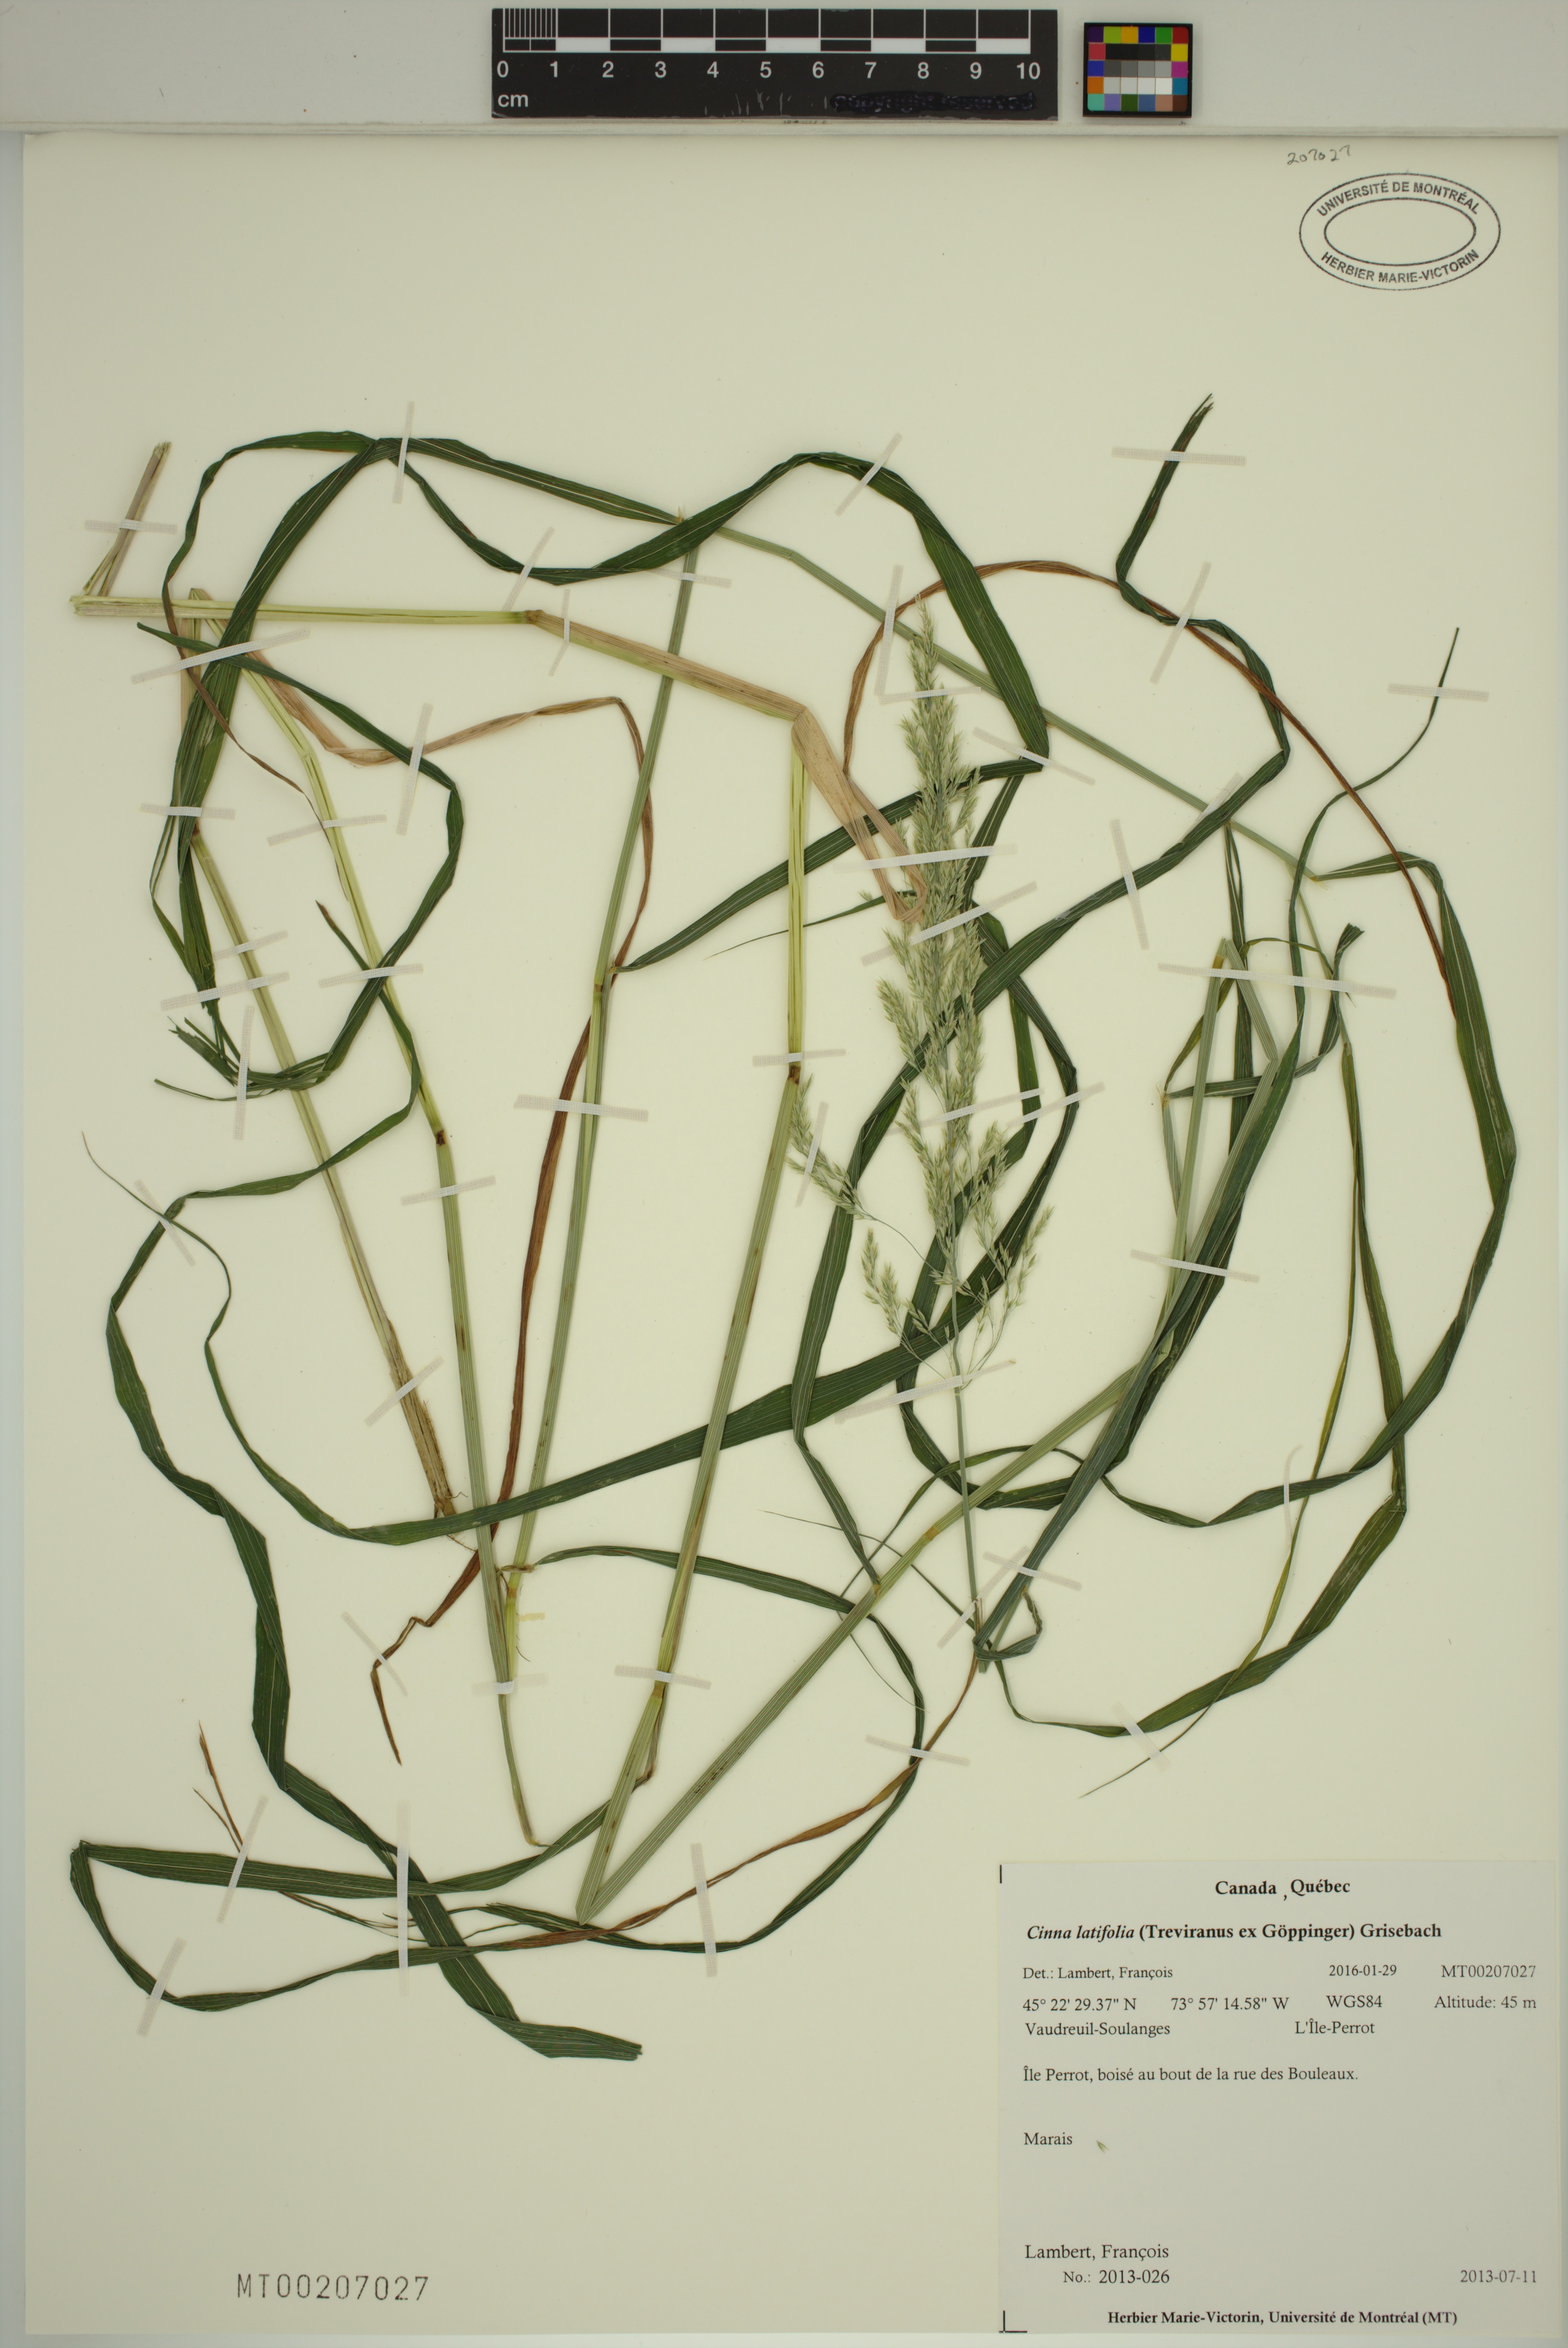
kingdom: Plantae
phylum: Tracheophyta
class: Liliopsida
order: Poales
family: Poaceae
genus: Cinna
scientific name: Cinna latifolia
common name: Drooping woodreed
